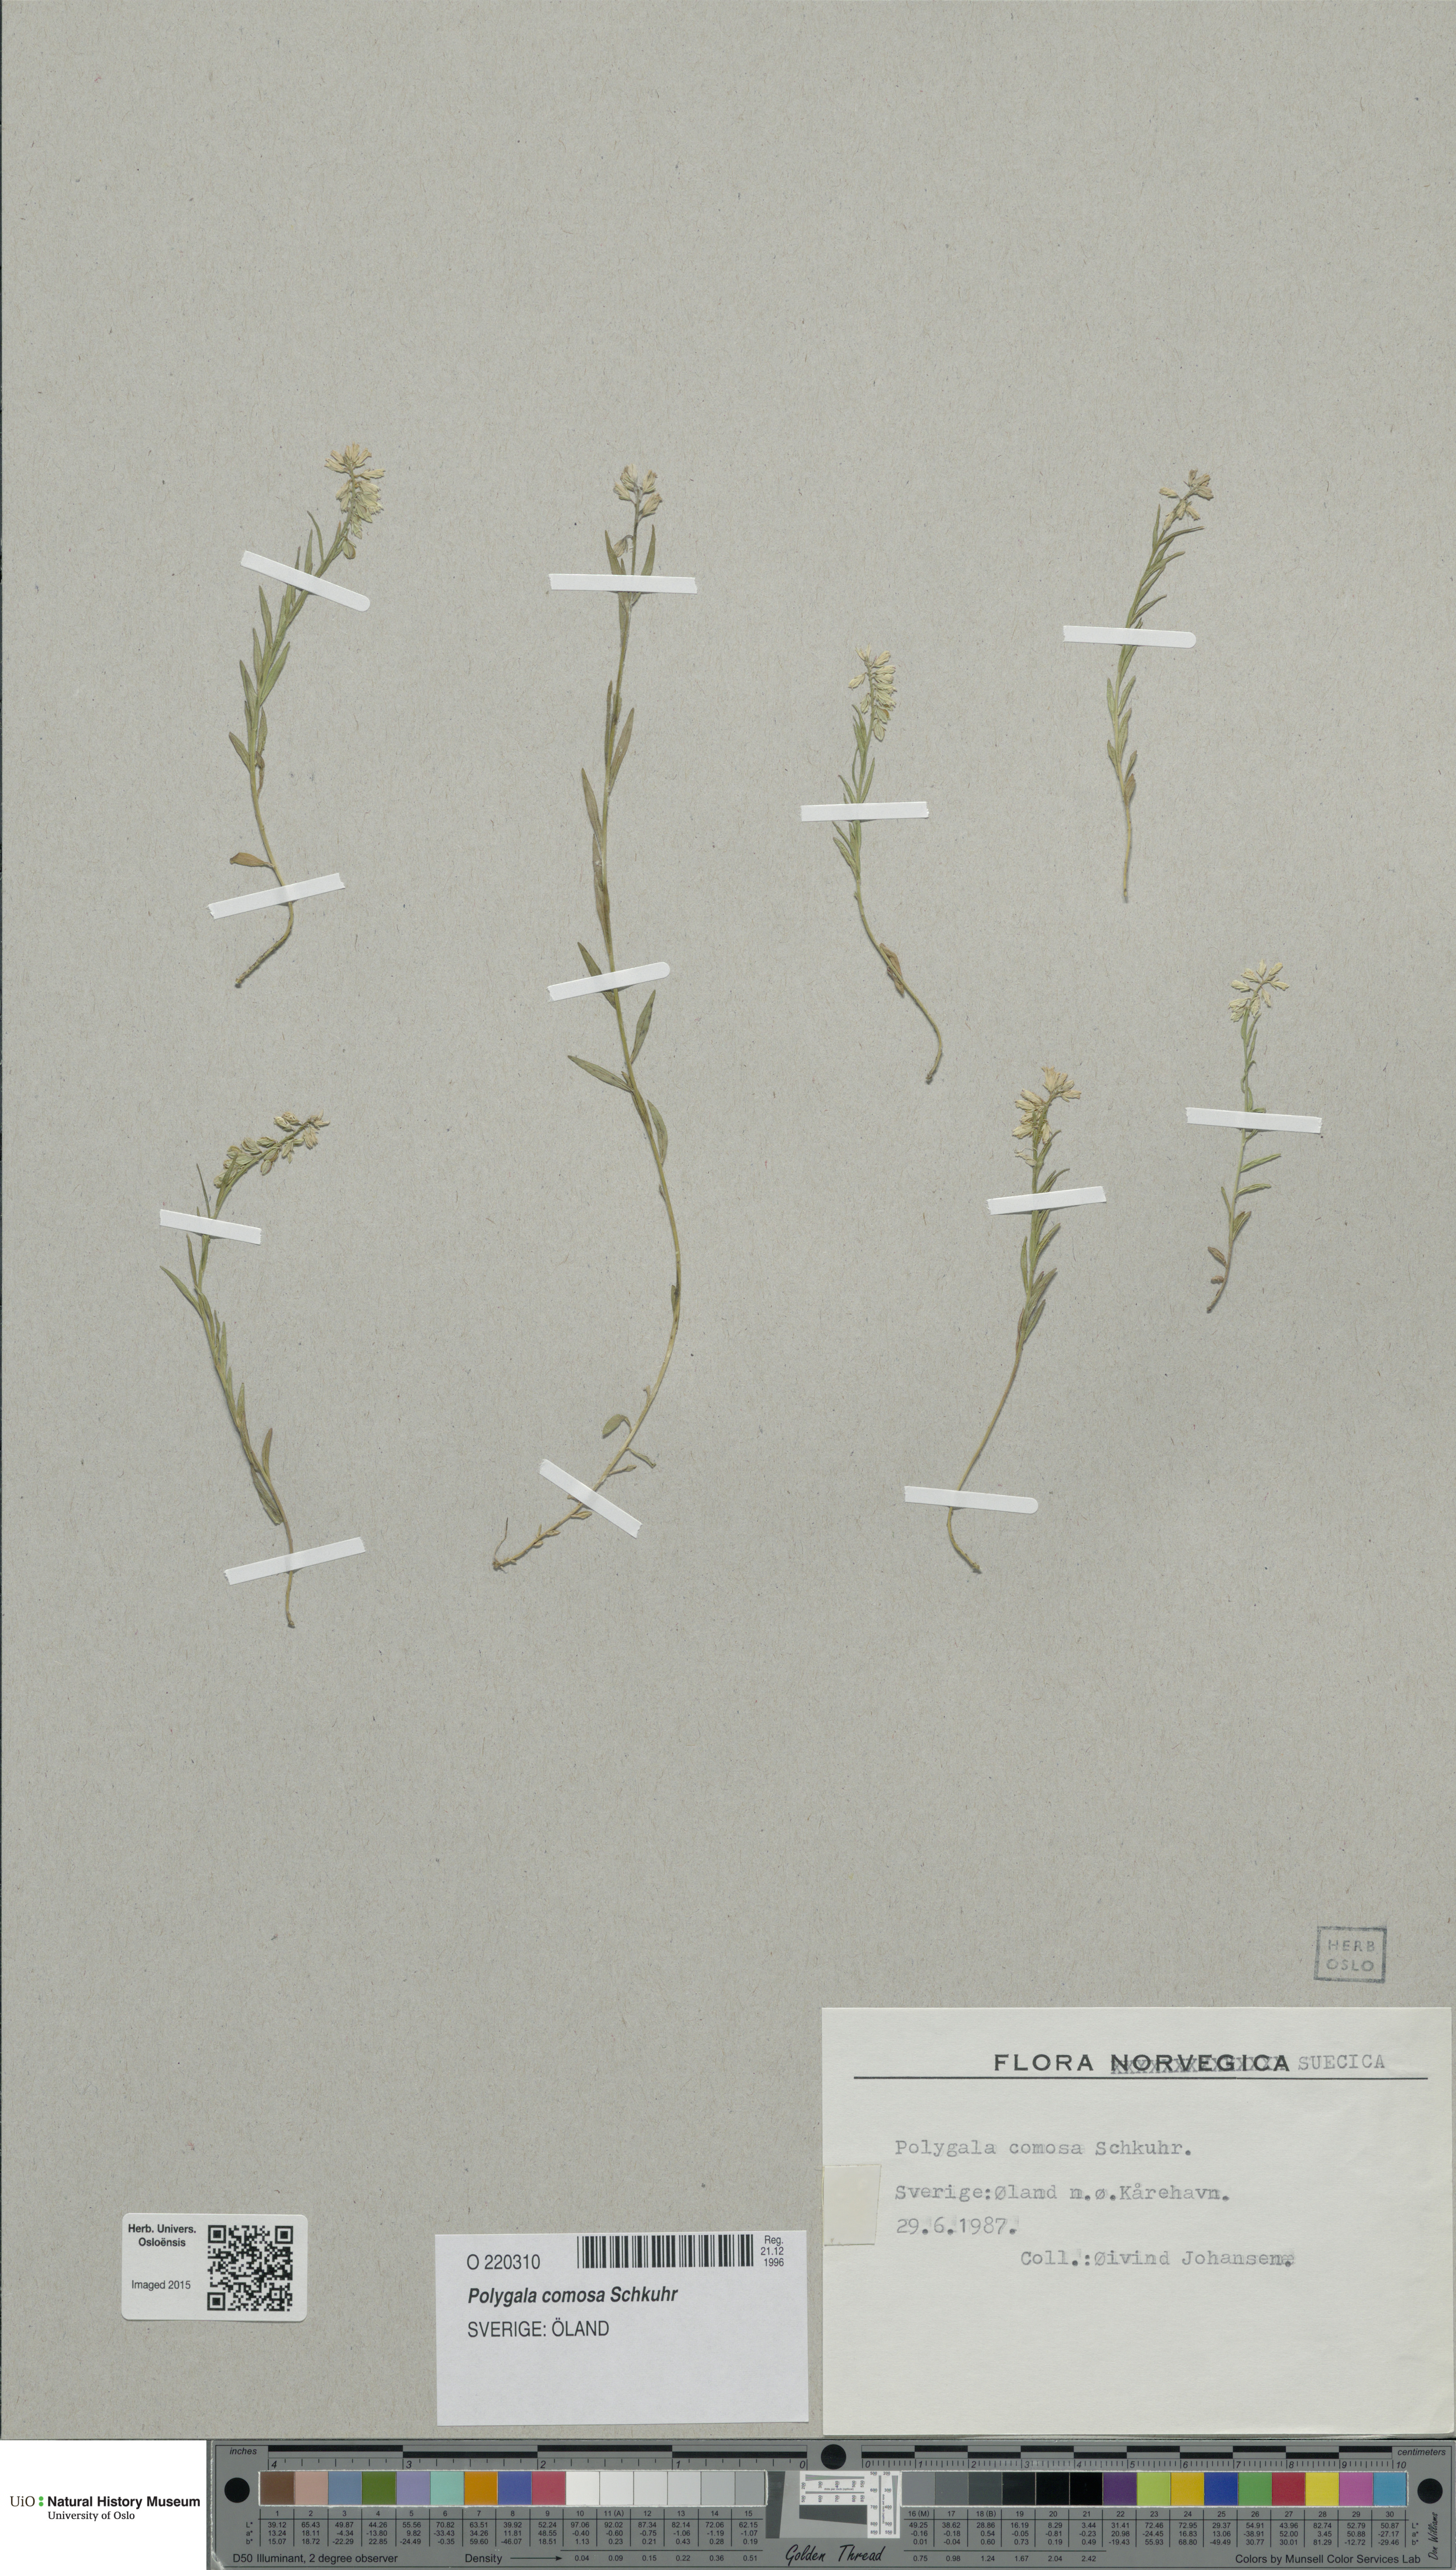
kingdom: Plantae
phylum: Tracheophyta
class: Magnoliopsida
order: Fabales
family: Polygalaceae
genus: Polygala
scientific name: Polygala comosa
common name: Tufted milkwort
